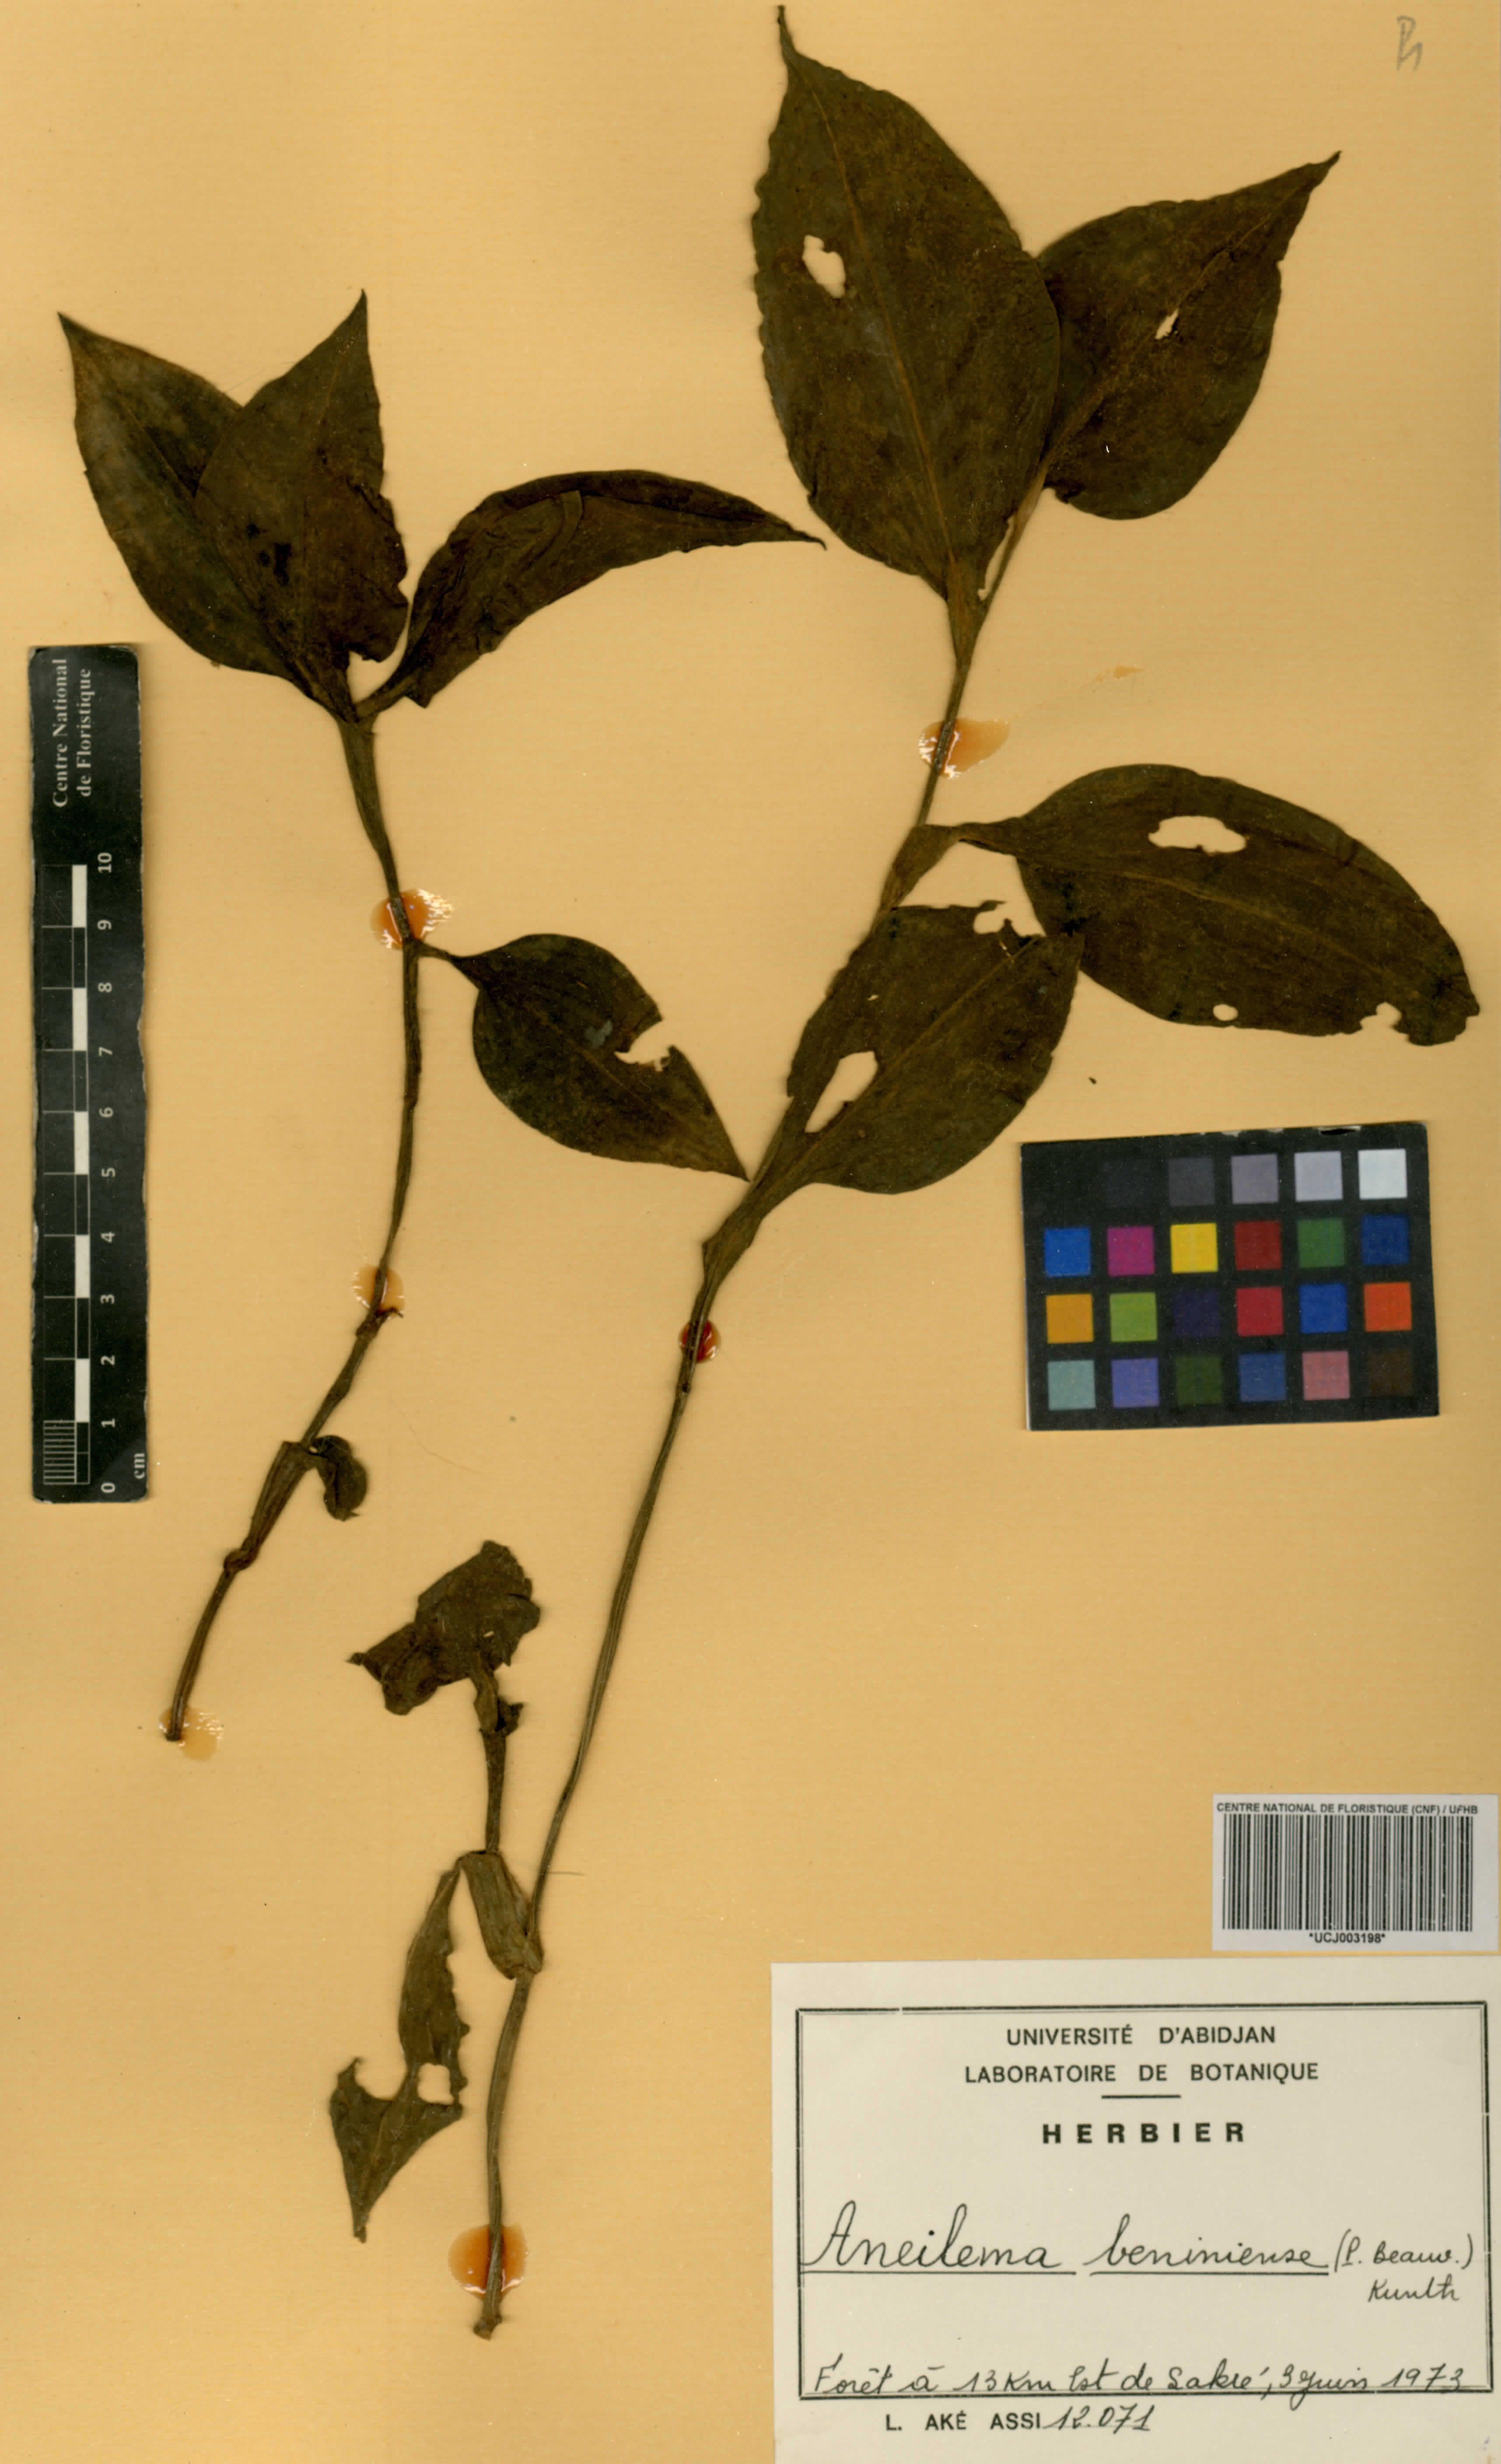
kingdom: Plantae
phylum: Tracheophyta
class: Liliopsida
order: Commelinales
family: Commelinaceae
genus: Aneilema
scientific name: Aneilema beniniense
